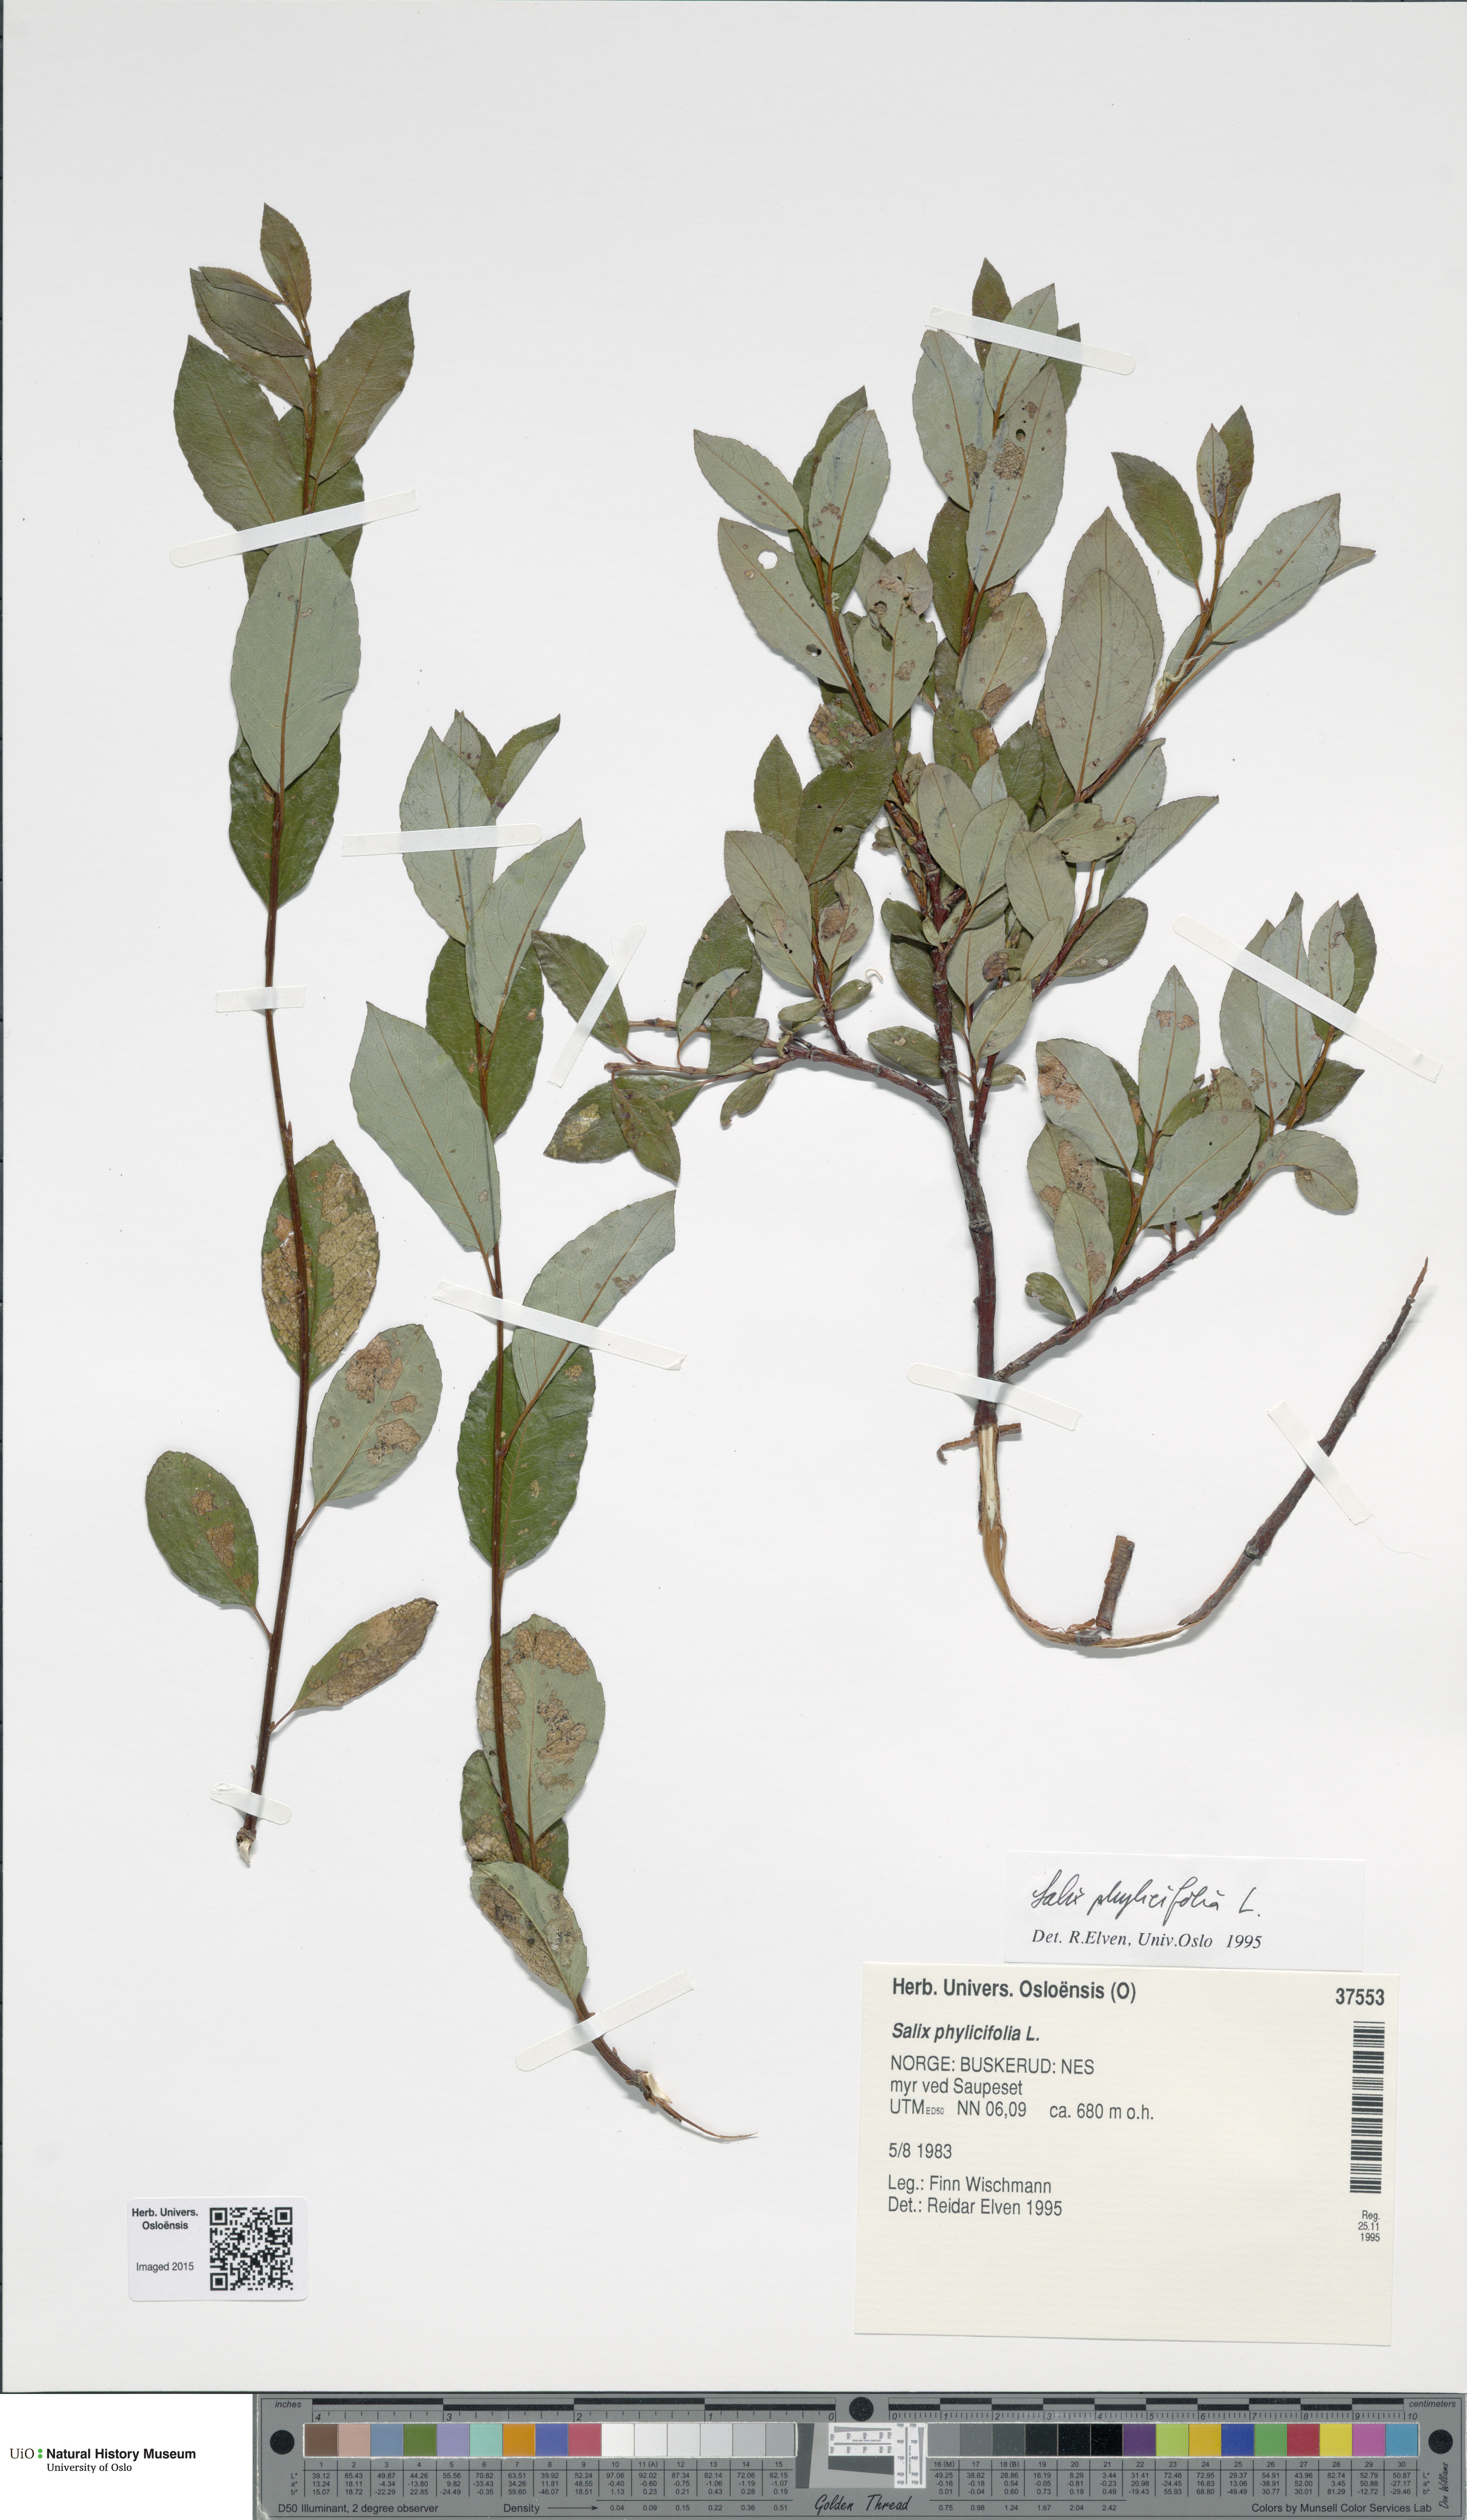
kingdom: Plantae
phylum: Tracheophyta
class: Magnoliopsida
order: Malpighiales
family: Salicaceae
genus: Salix
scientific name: Salix phylicifolia
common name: Tea-leaved willow
